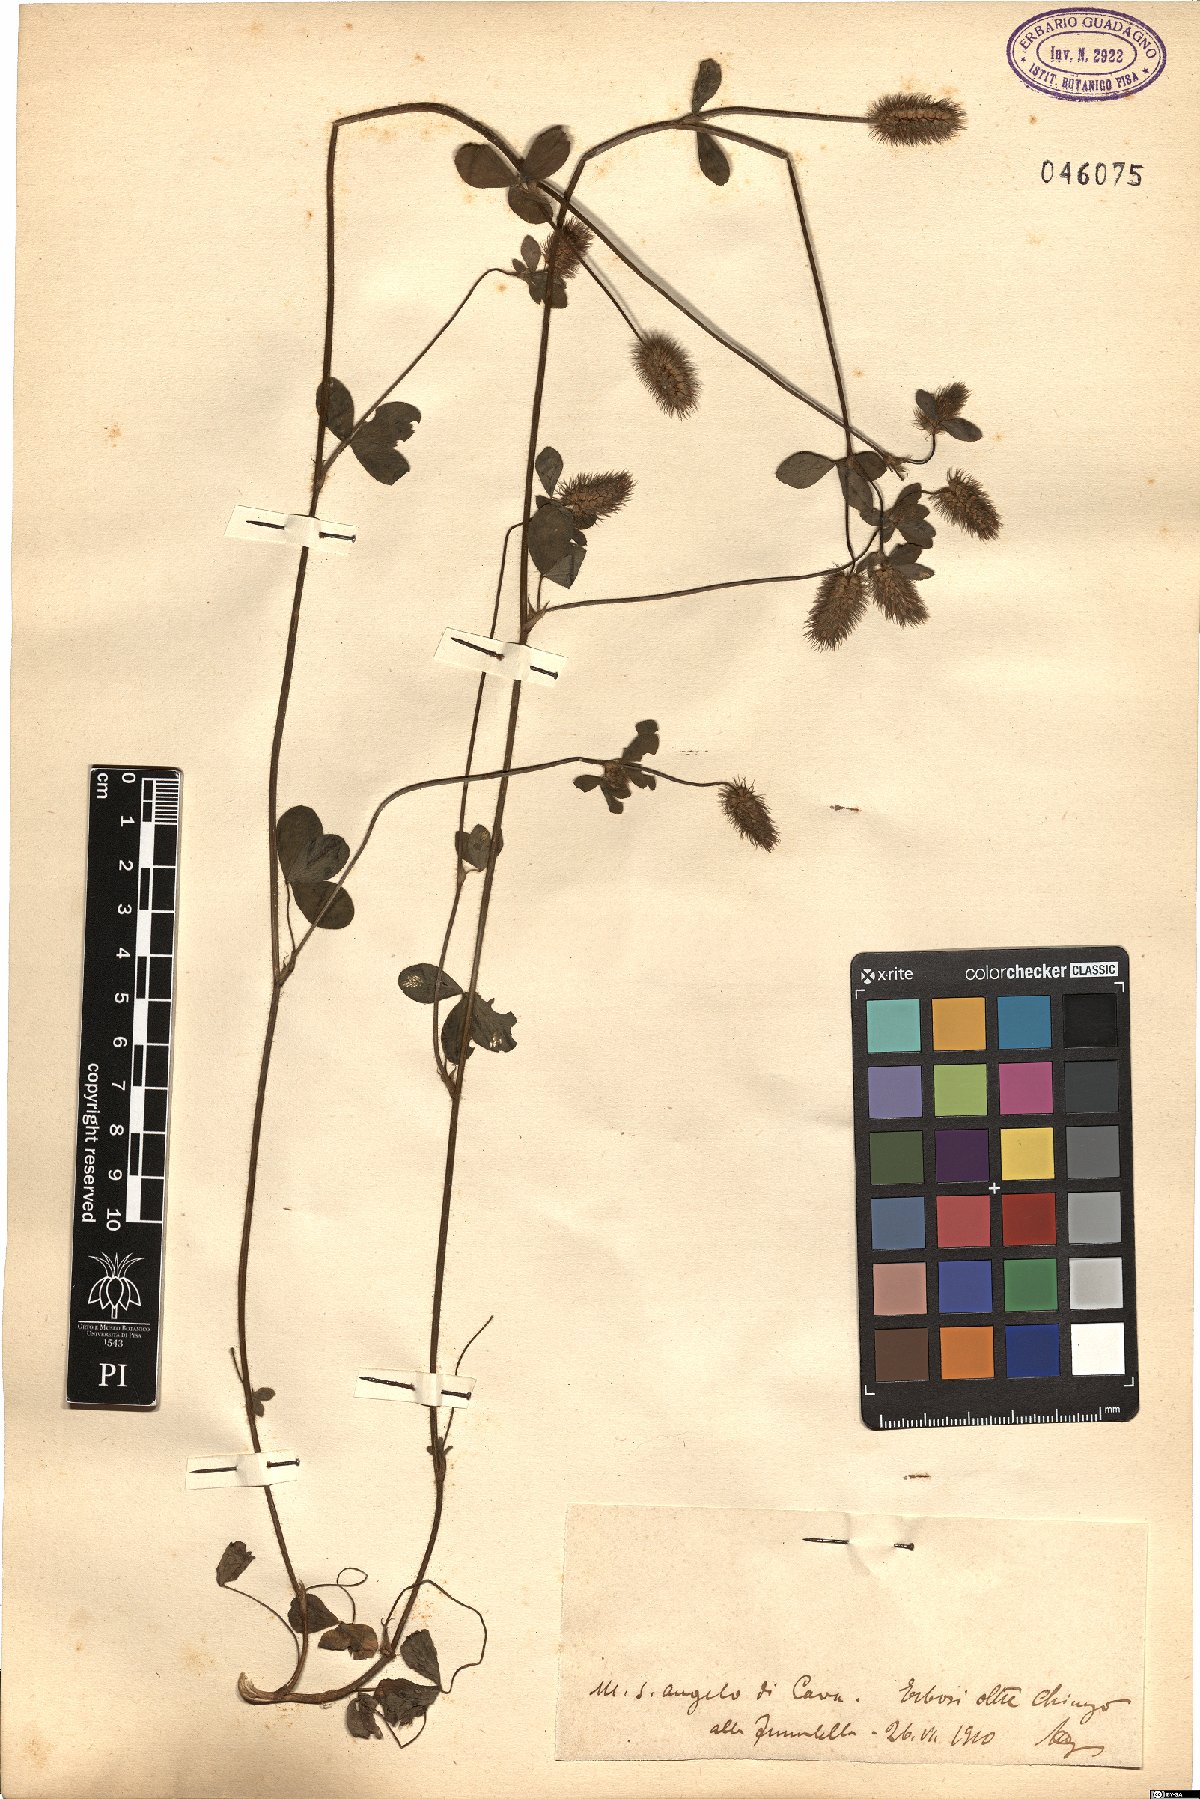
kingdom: Plantae
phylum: Tracheophyta
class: Magnoliopsida
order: Fabales
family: Fabaceae
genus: Trifolium
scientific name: Trifolium
